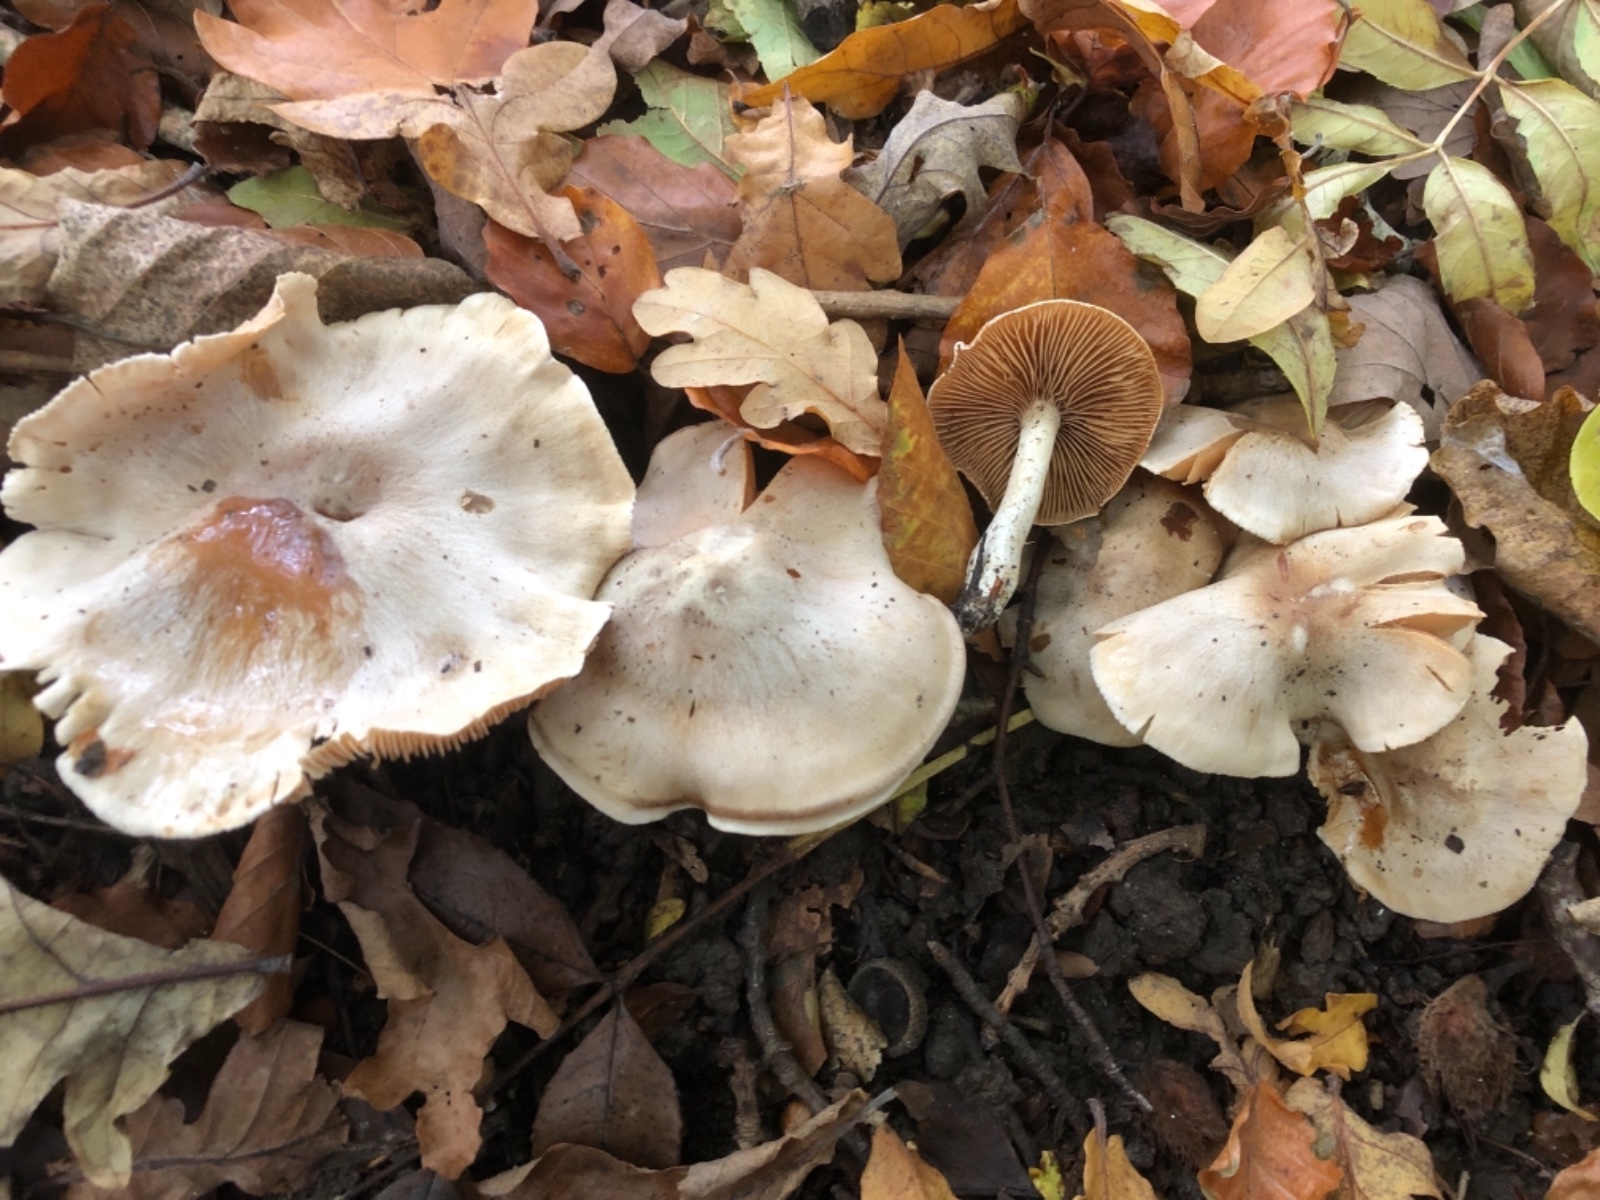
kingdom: Fungi
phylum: Basidiomycota
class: Agaricomycetes
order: Agaricales
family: Cortinariaceae
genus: Thaxterogaster
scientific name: Thaxterogaster barbatus
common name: elfenbens-slørhat
